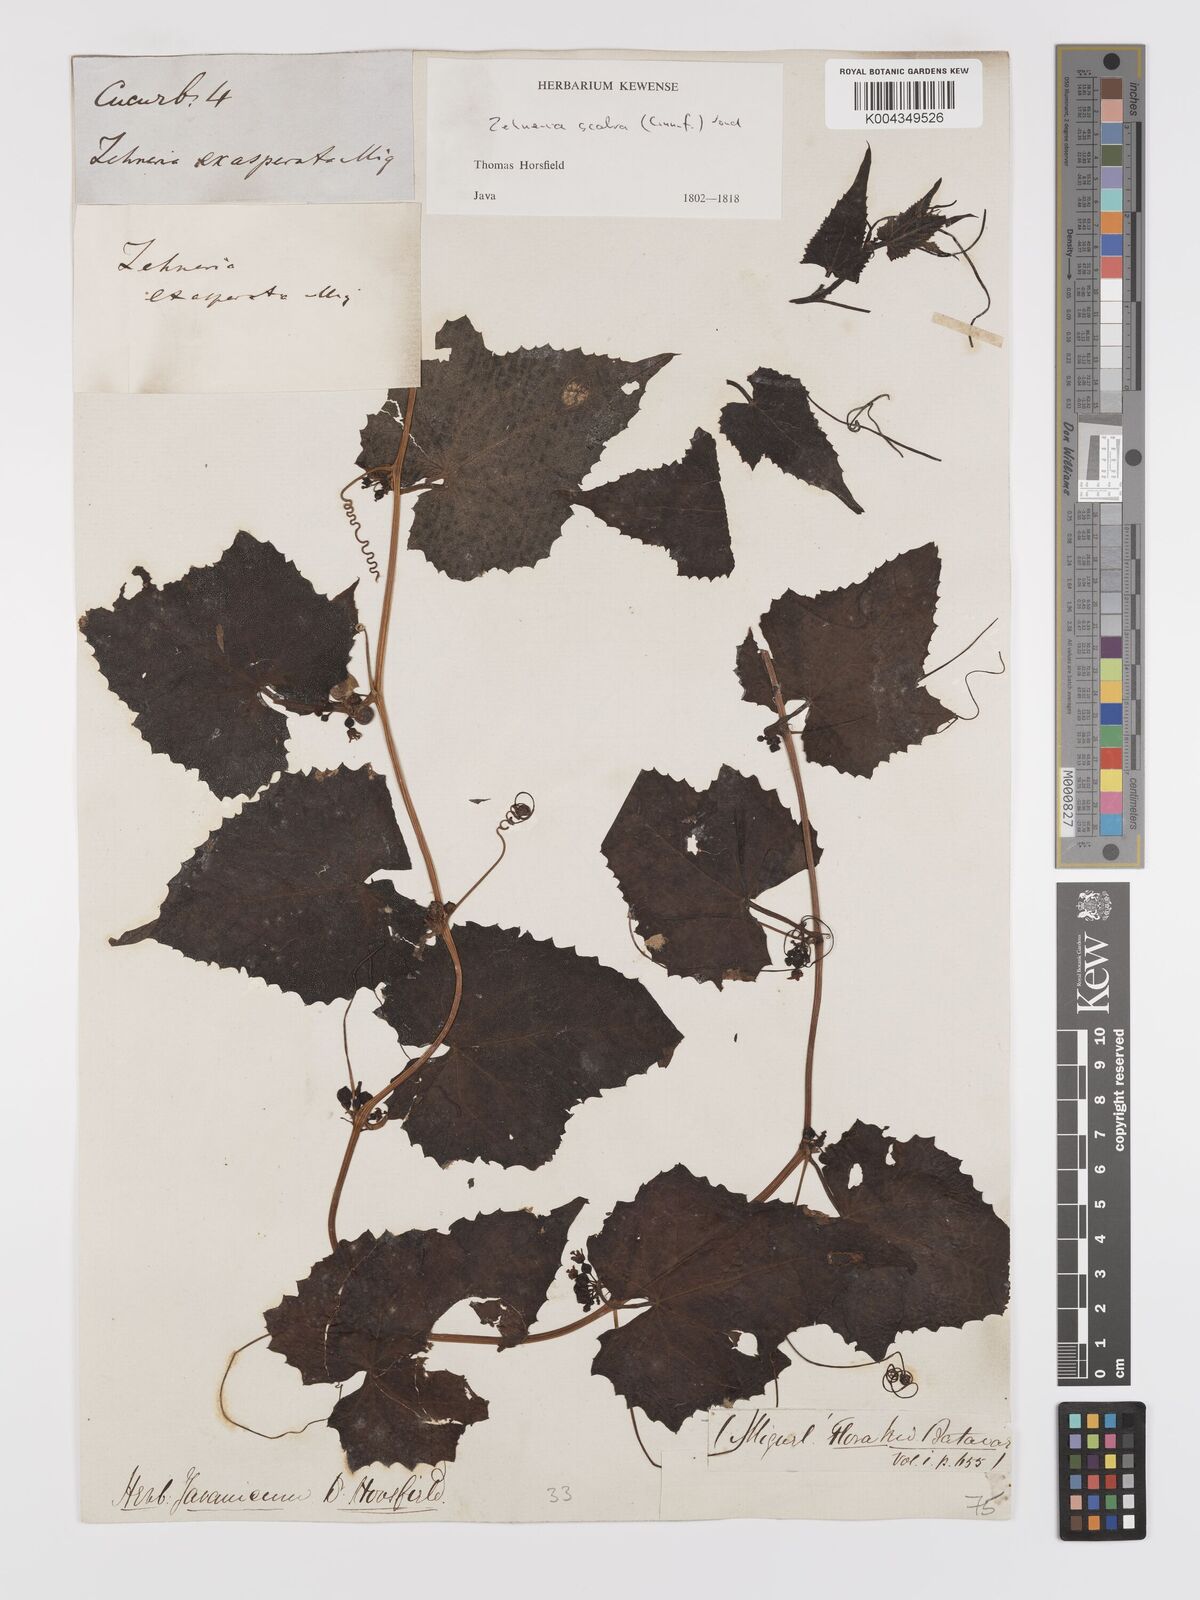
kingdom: Plantae
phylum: Tracheophyta
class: Magnoliopsida
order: Cucurbitales
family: Cucurbitaceae
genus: Zehneria
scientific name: Zehneria scabra
